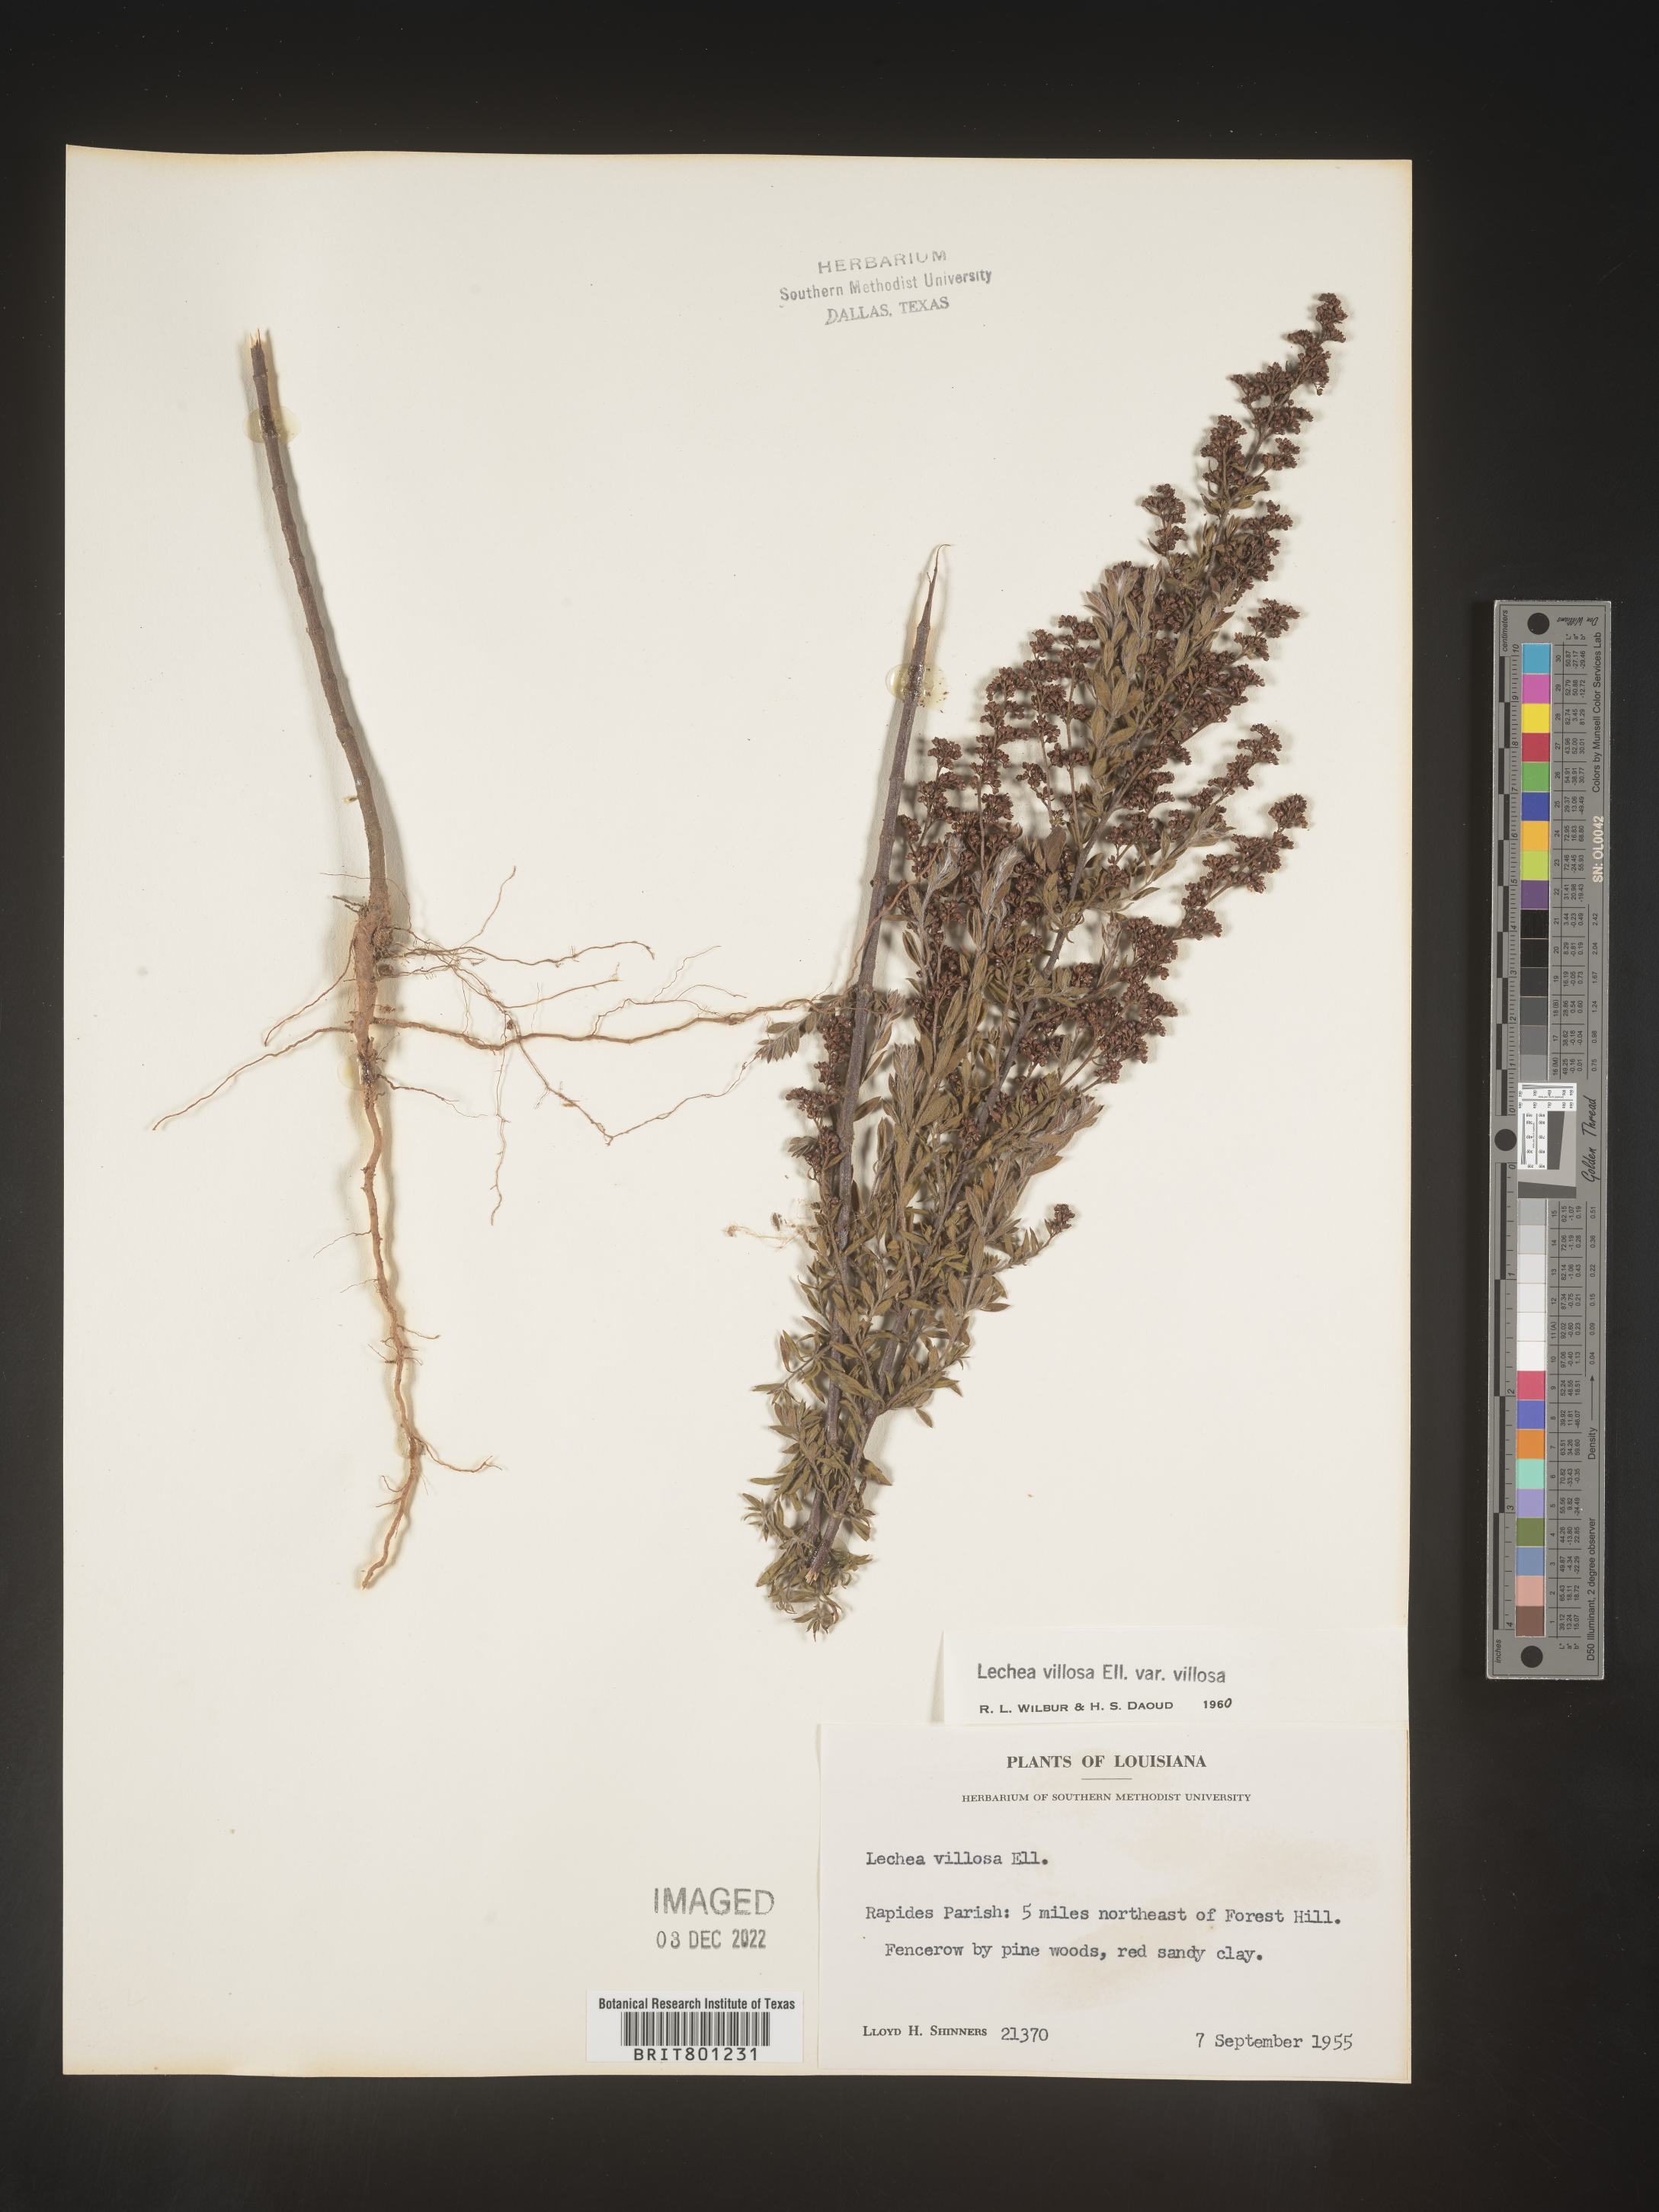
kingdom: Plantae
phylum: Tracheophyta
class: Magnoliopsida
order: Malvales
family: Cistaceae
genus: Lechea
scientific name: Lechea mucronata
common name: Hairy pinweed
